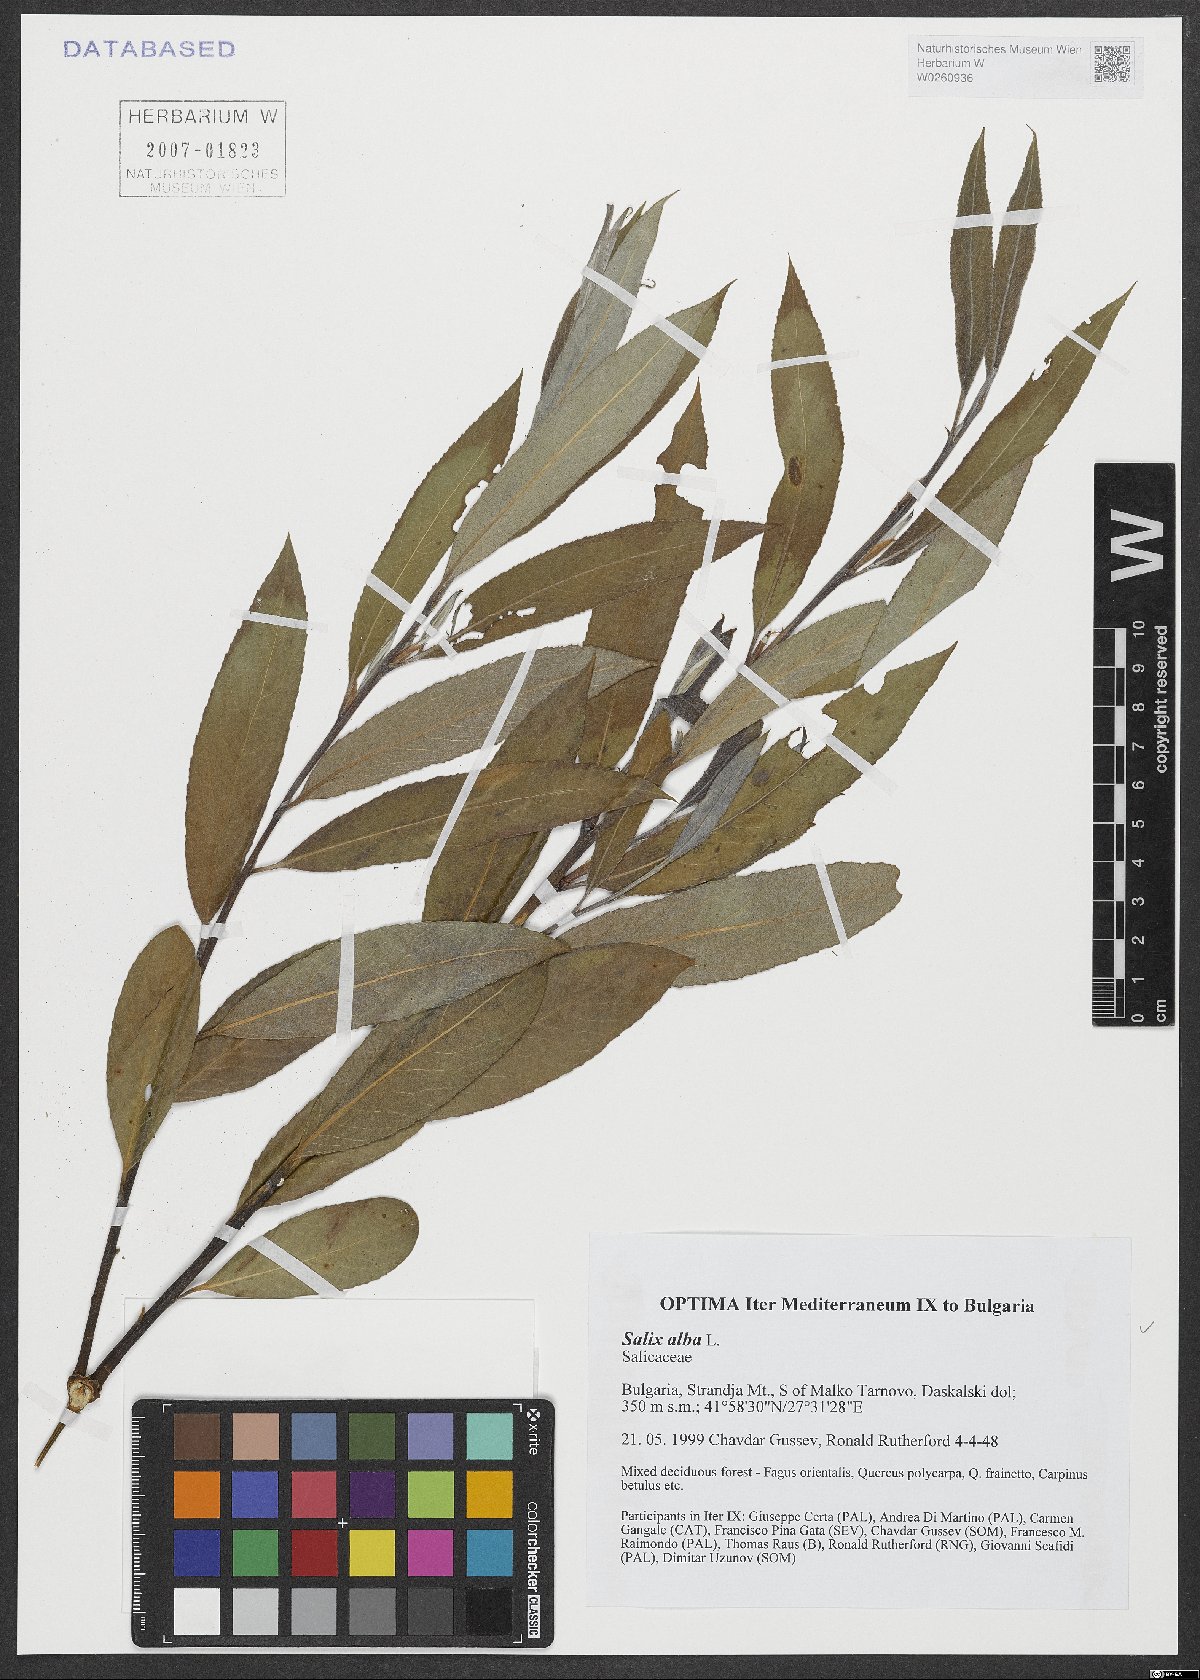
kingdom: Plantae
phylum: Tracheophyta
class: Magnoliopsida
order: Malpighiales
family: Salicaceae
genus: Salix
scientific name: Salix alba
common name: White willow
